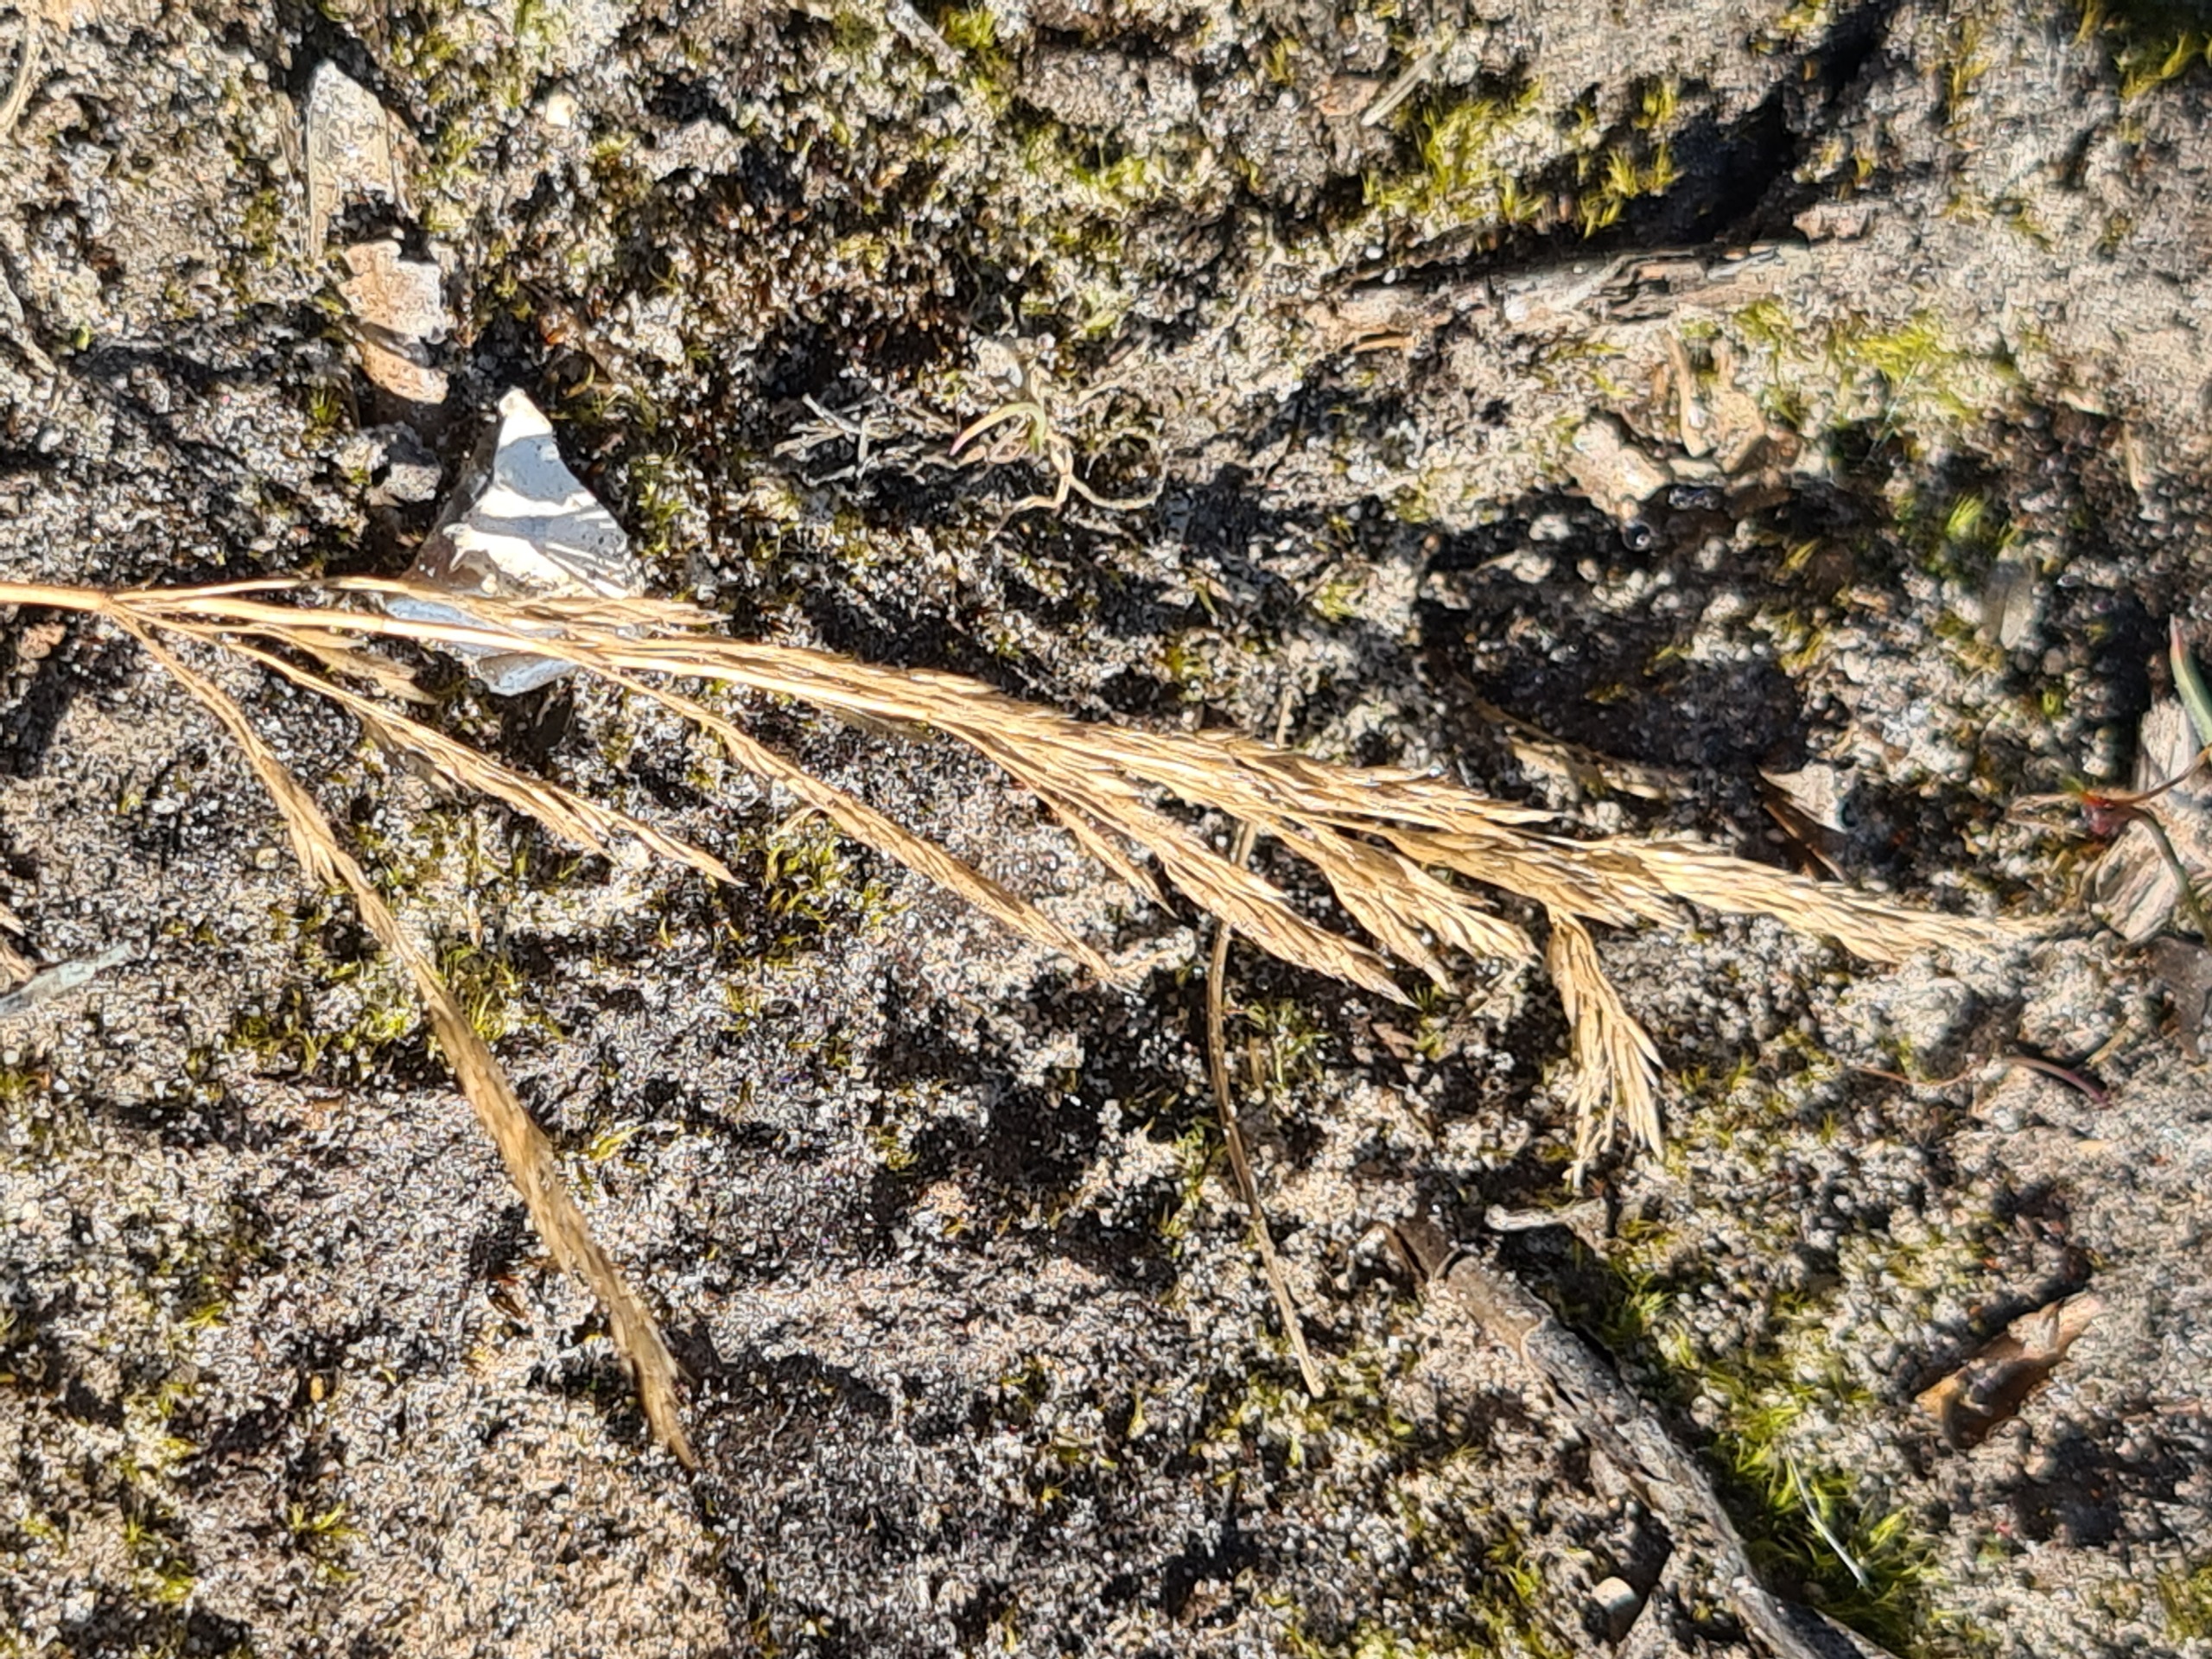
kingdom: Plantae
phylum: Tracheophyta
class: Liliopsida
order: Poales
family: Poaceae
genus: Agrostis
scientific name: Agrostis vinealis
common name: Sand-hvene
